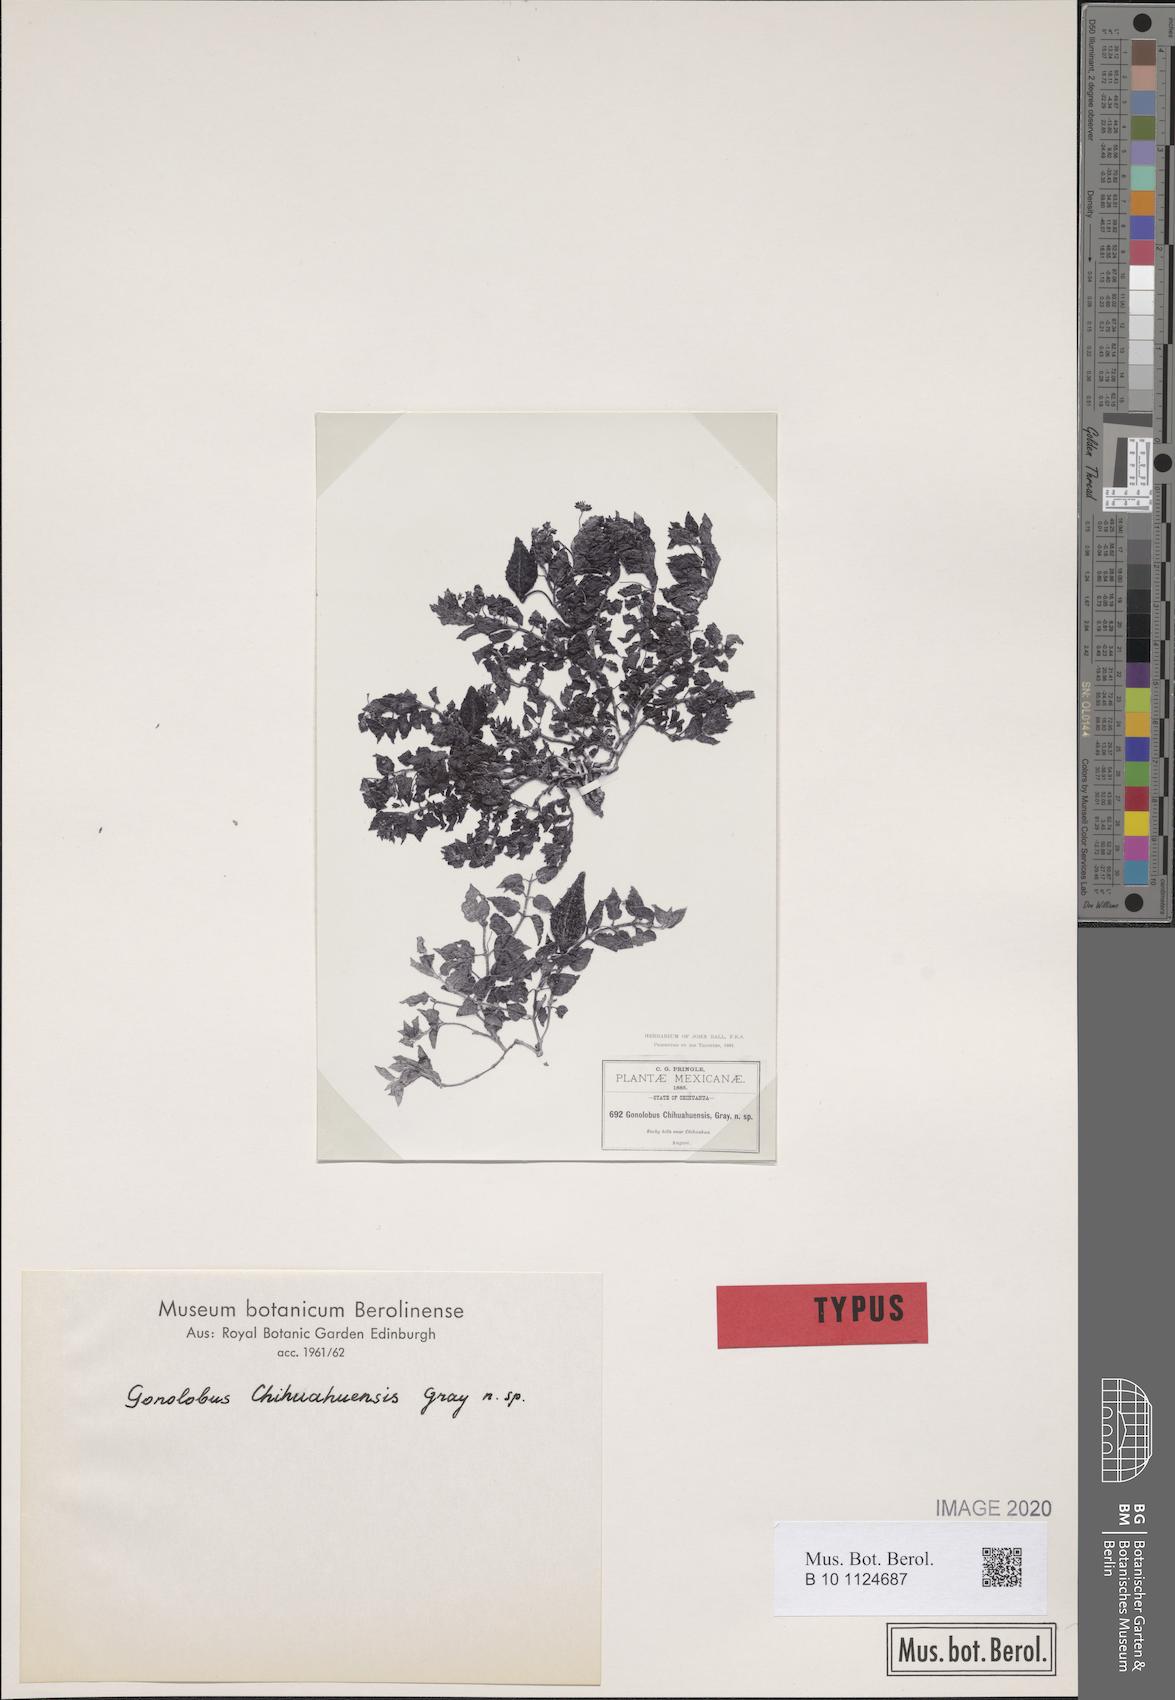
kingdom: Plantae
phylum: Tracheophyta
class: Magnoliopsida
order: Gentianales
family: Apocynaceae
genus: Matelea
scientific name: Matelea chihuahuensis
